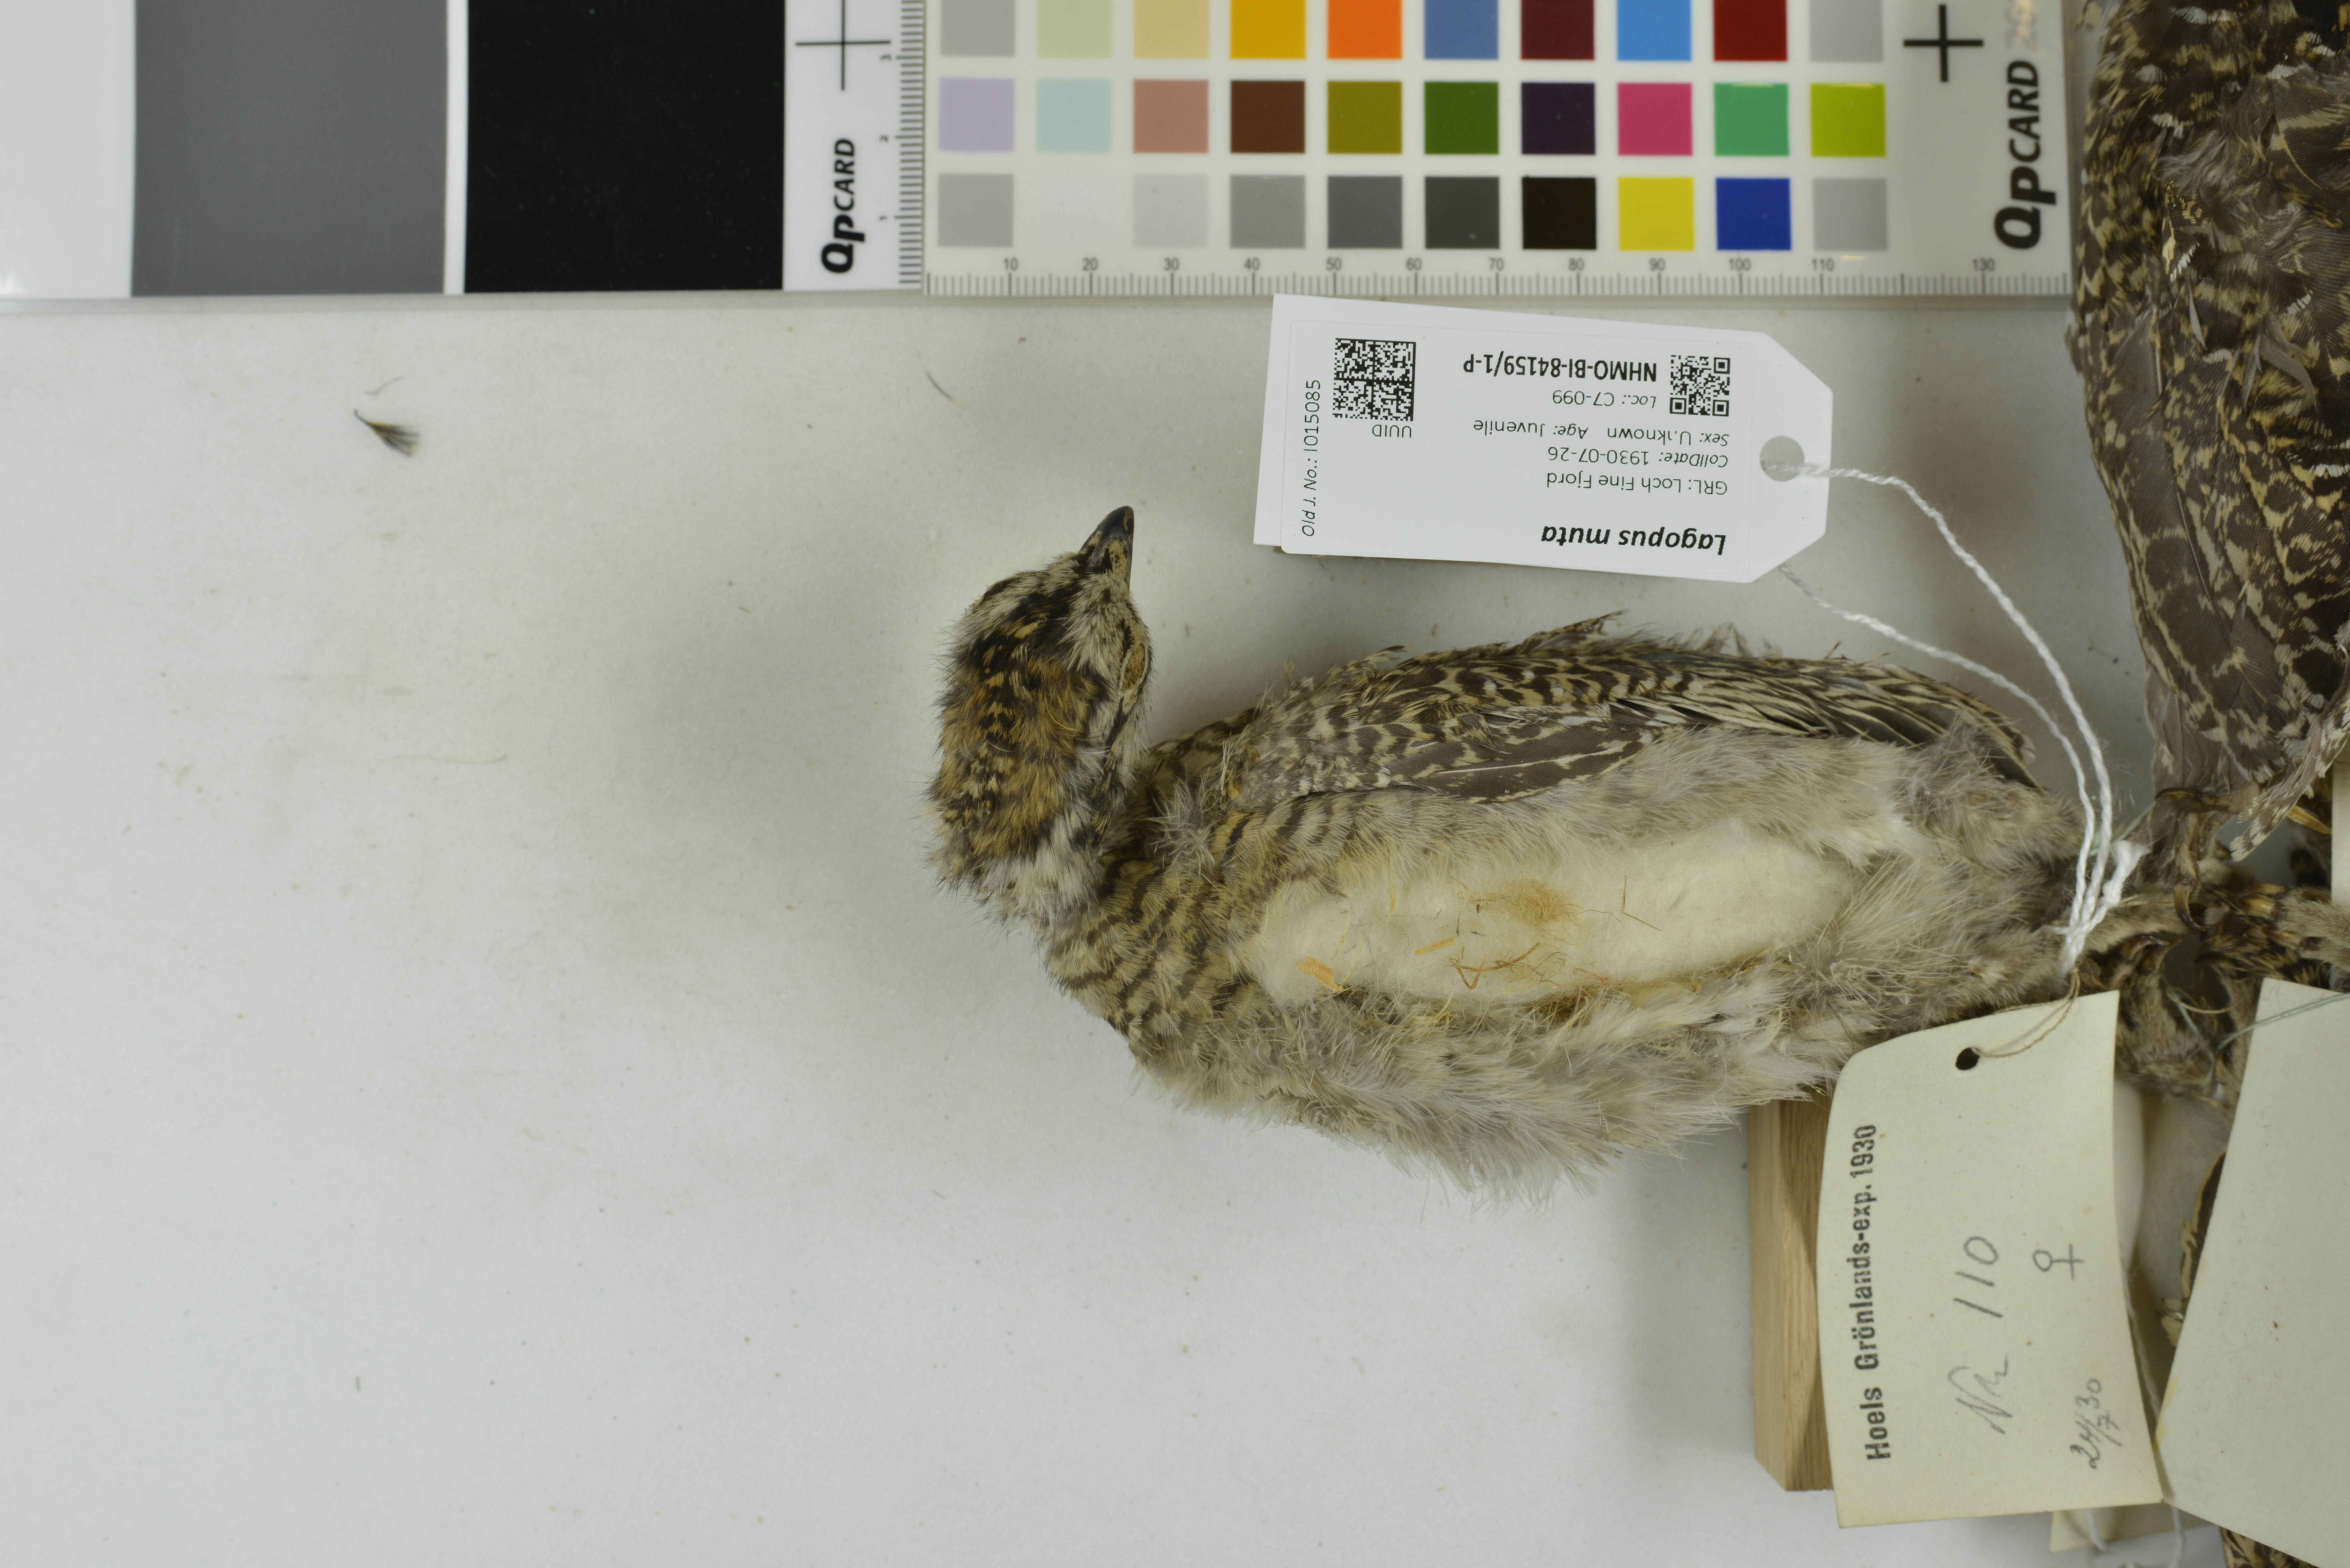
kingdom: Animalia
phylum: Chordata
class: Aves
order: Galliformes
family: Phasianidae
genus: Lagopus
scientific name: Lagopus muta
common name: Rock ptarmigan
